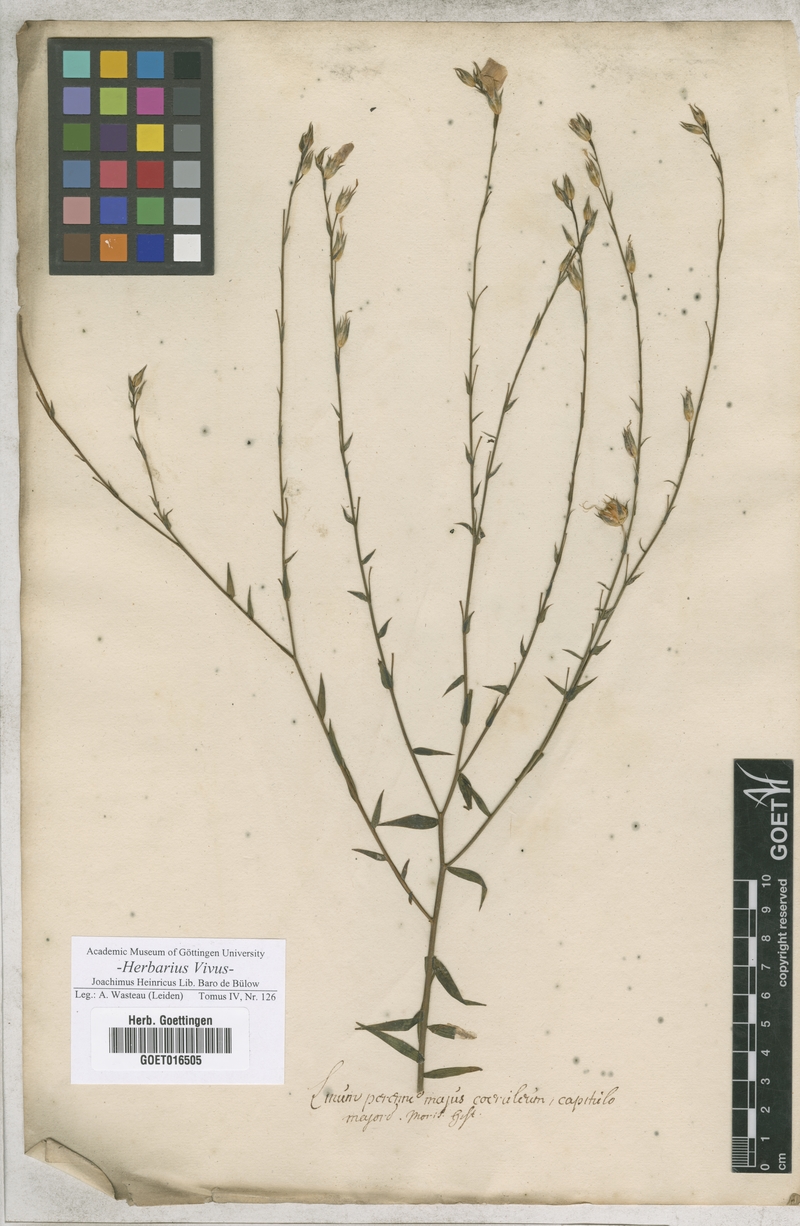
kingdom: Plantae
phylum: Tracheophyta
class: Magnoliopsida
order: Malpighiales
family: Linaceae
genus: Linum
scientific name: Linum perenne
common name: Blue flax
